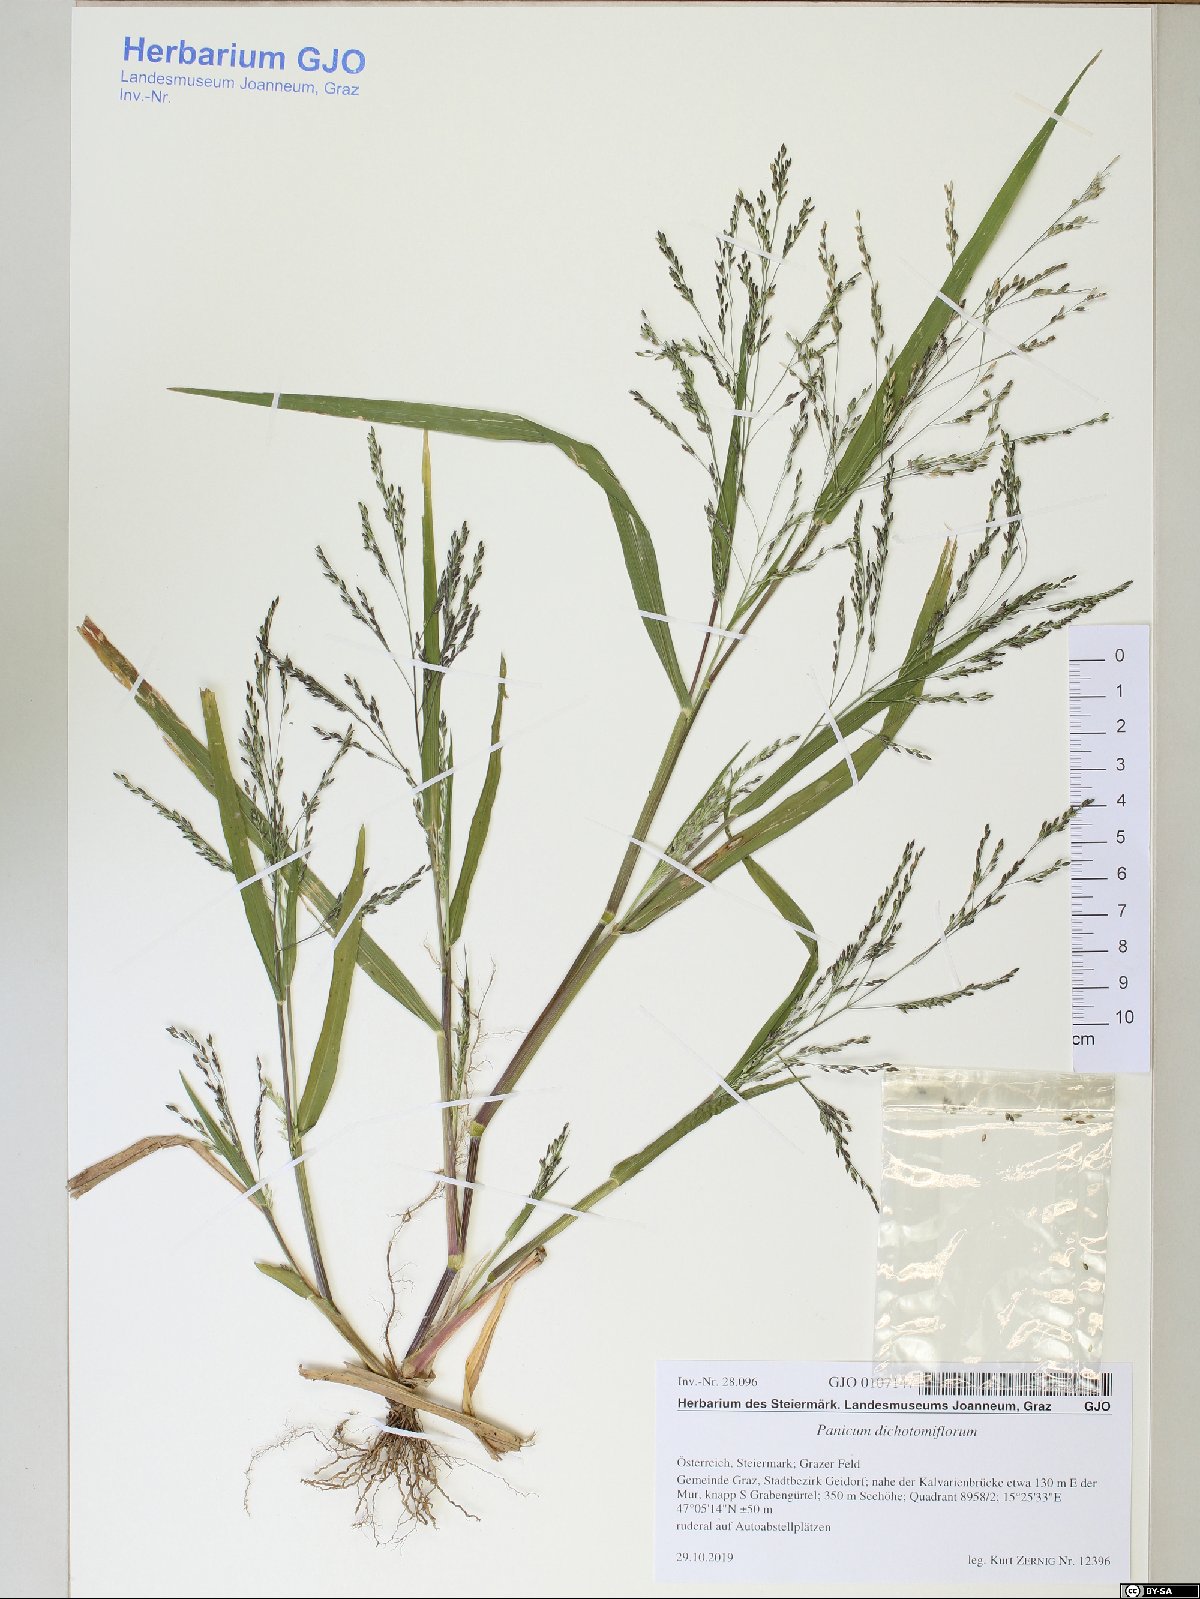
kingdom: Plantae
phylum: Tracheophyta
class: Liliopsida
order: Poales
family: Poaceae
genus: Panicum
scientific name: Panicum dichotomiflorum
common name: Autumn millet
